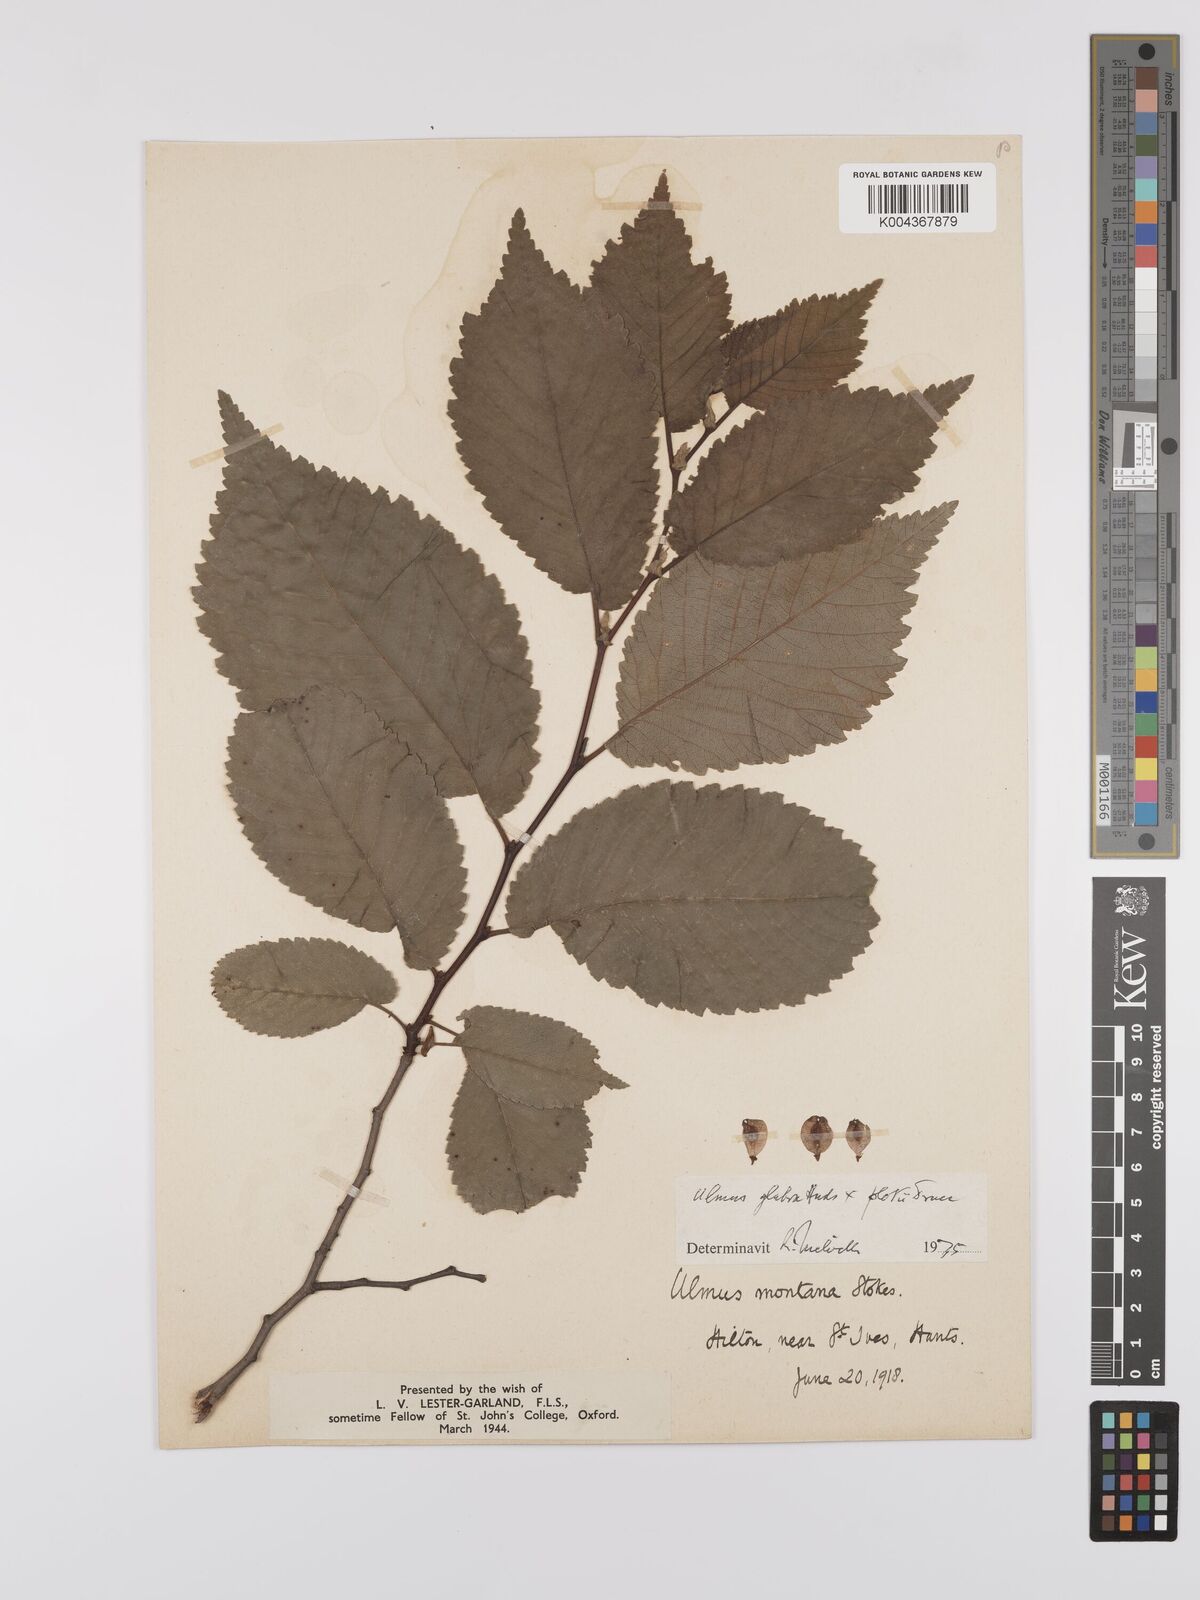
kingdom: Plantae
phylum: Tracheophyta
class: Magnoliopsida
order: Rosales
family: Ulmaceae
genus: Ulmus
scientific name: Ulmus
